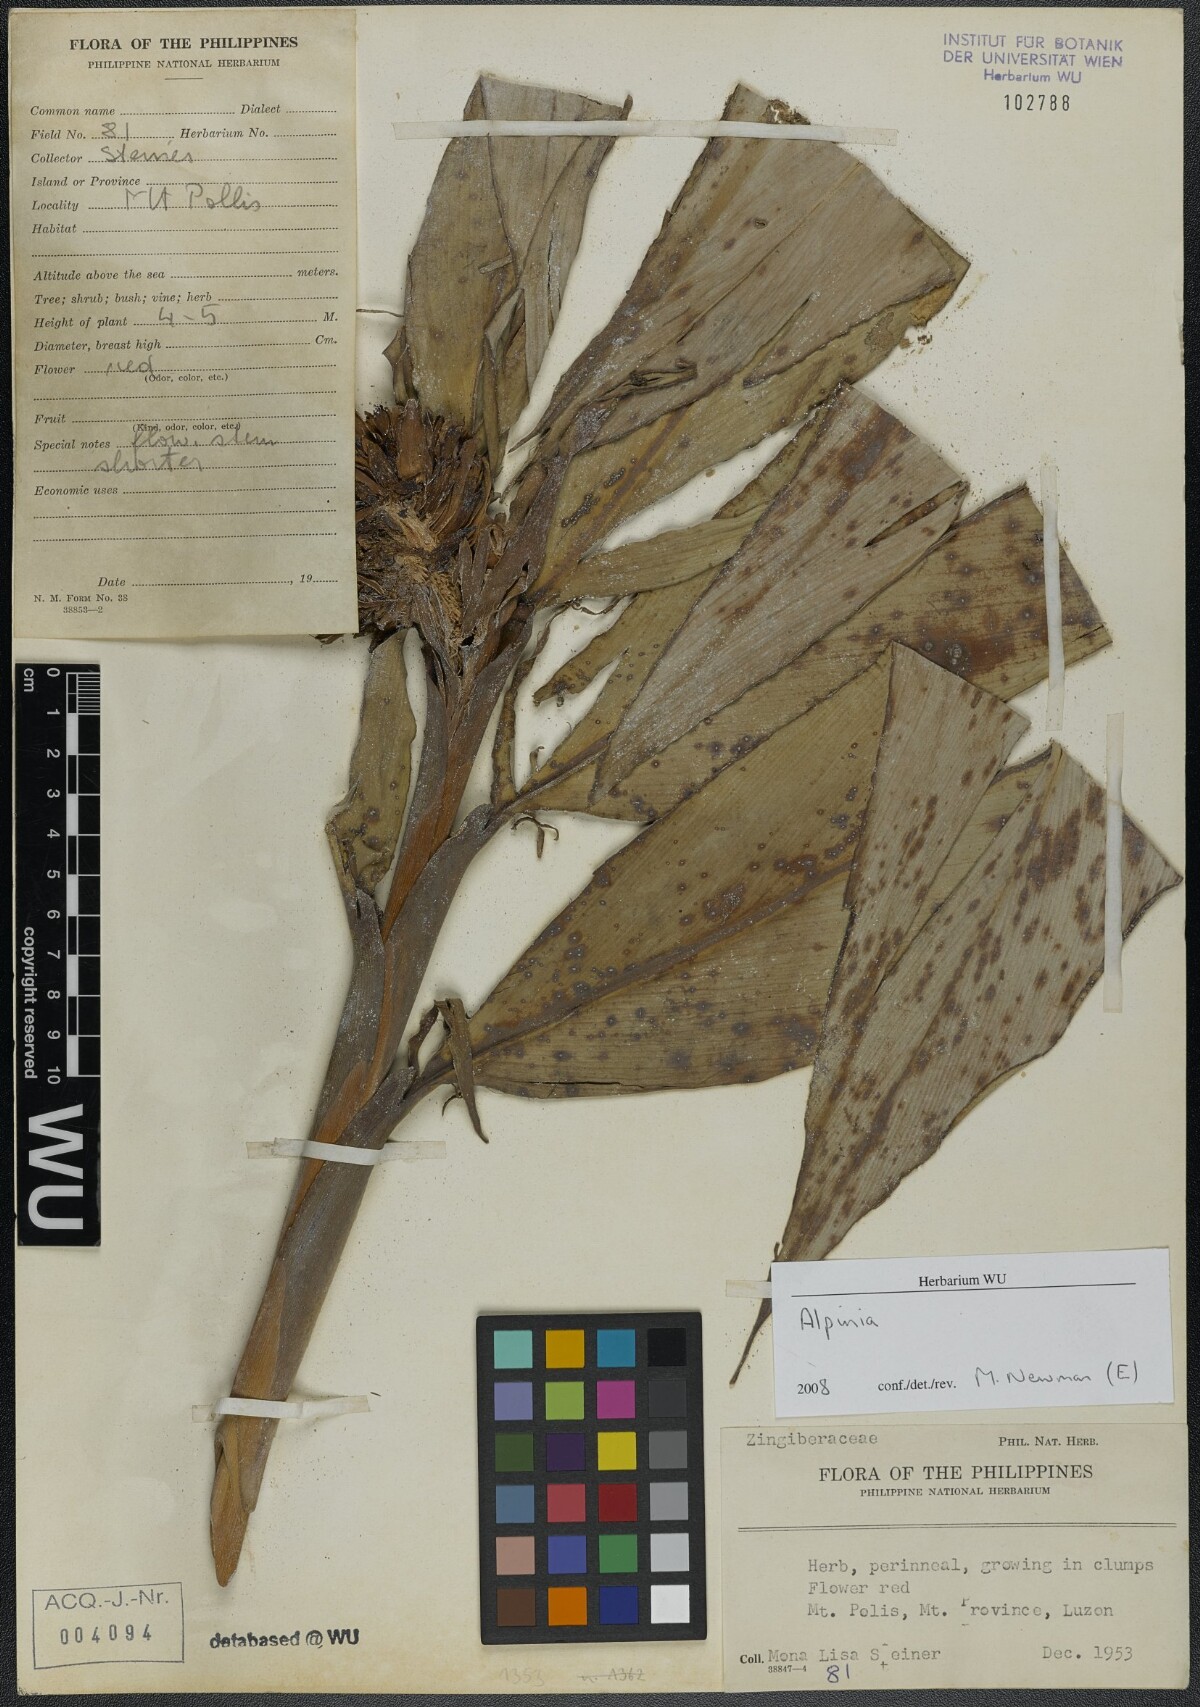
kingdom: Plantae
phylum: Tracheophyta
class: Liliopsida
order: Zingiberales
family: Zingiberaceae
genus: Alpinia
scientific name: Alpinia
